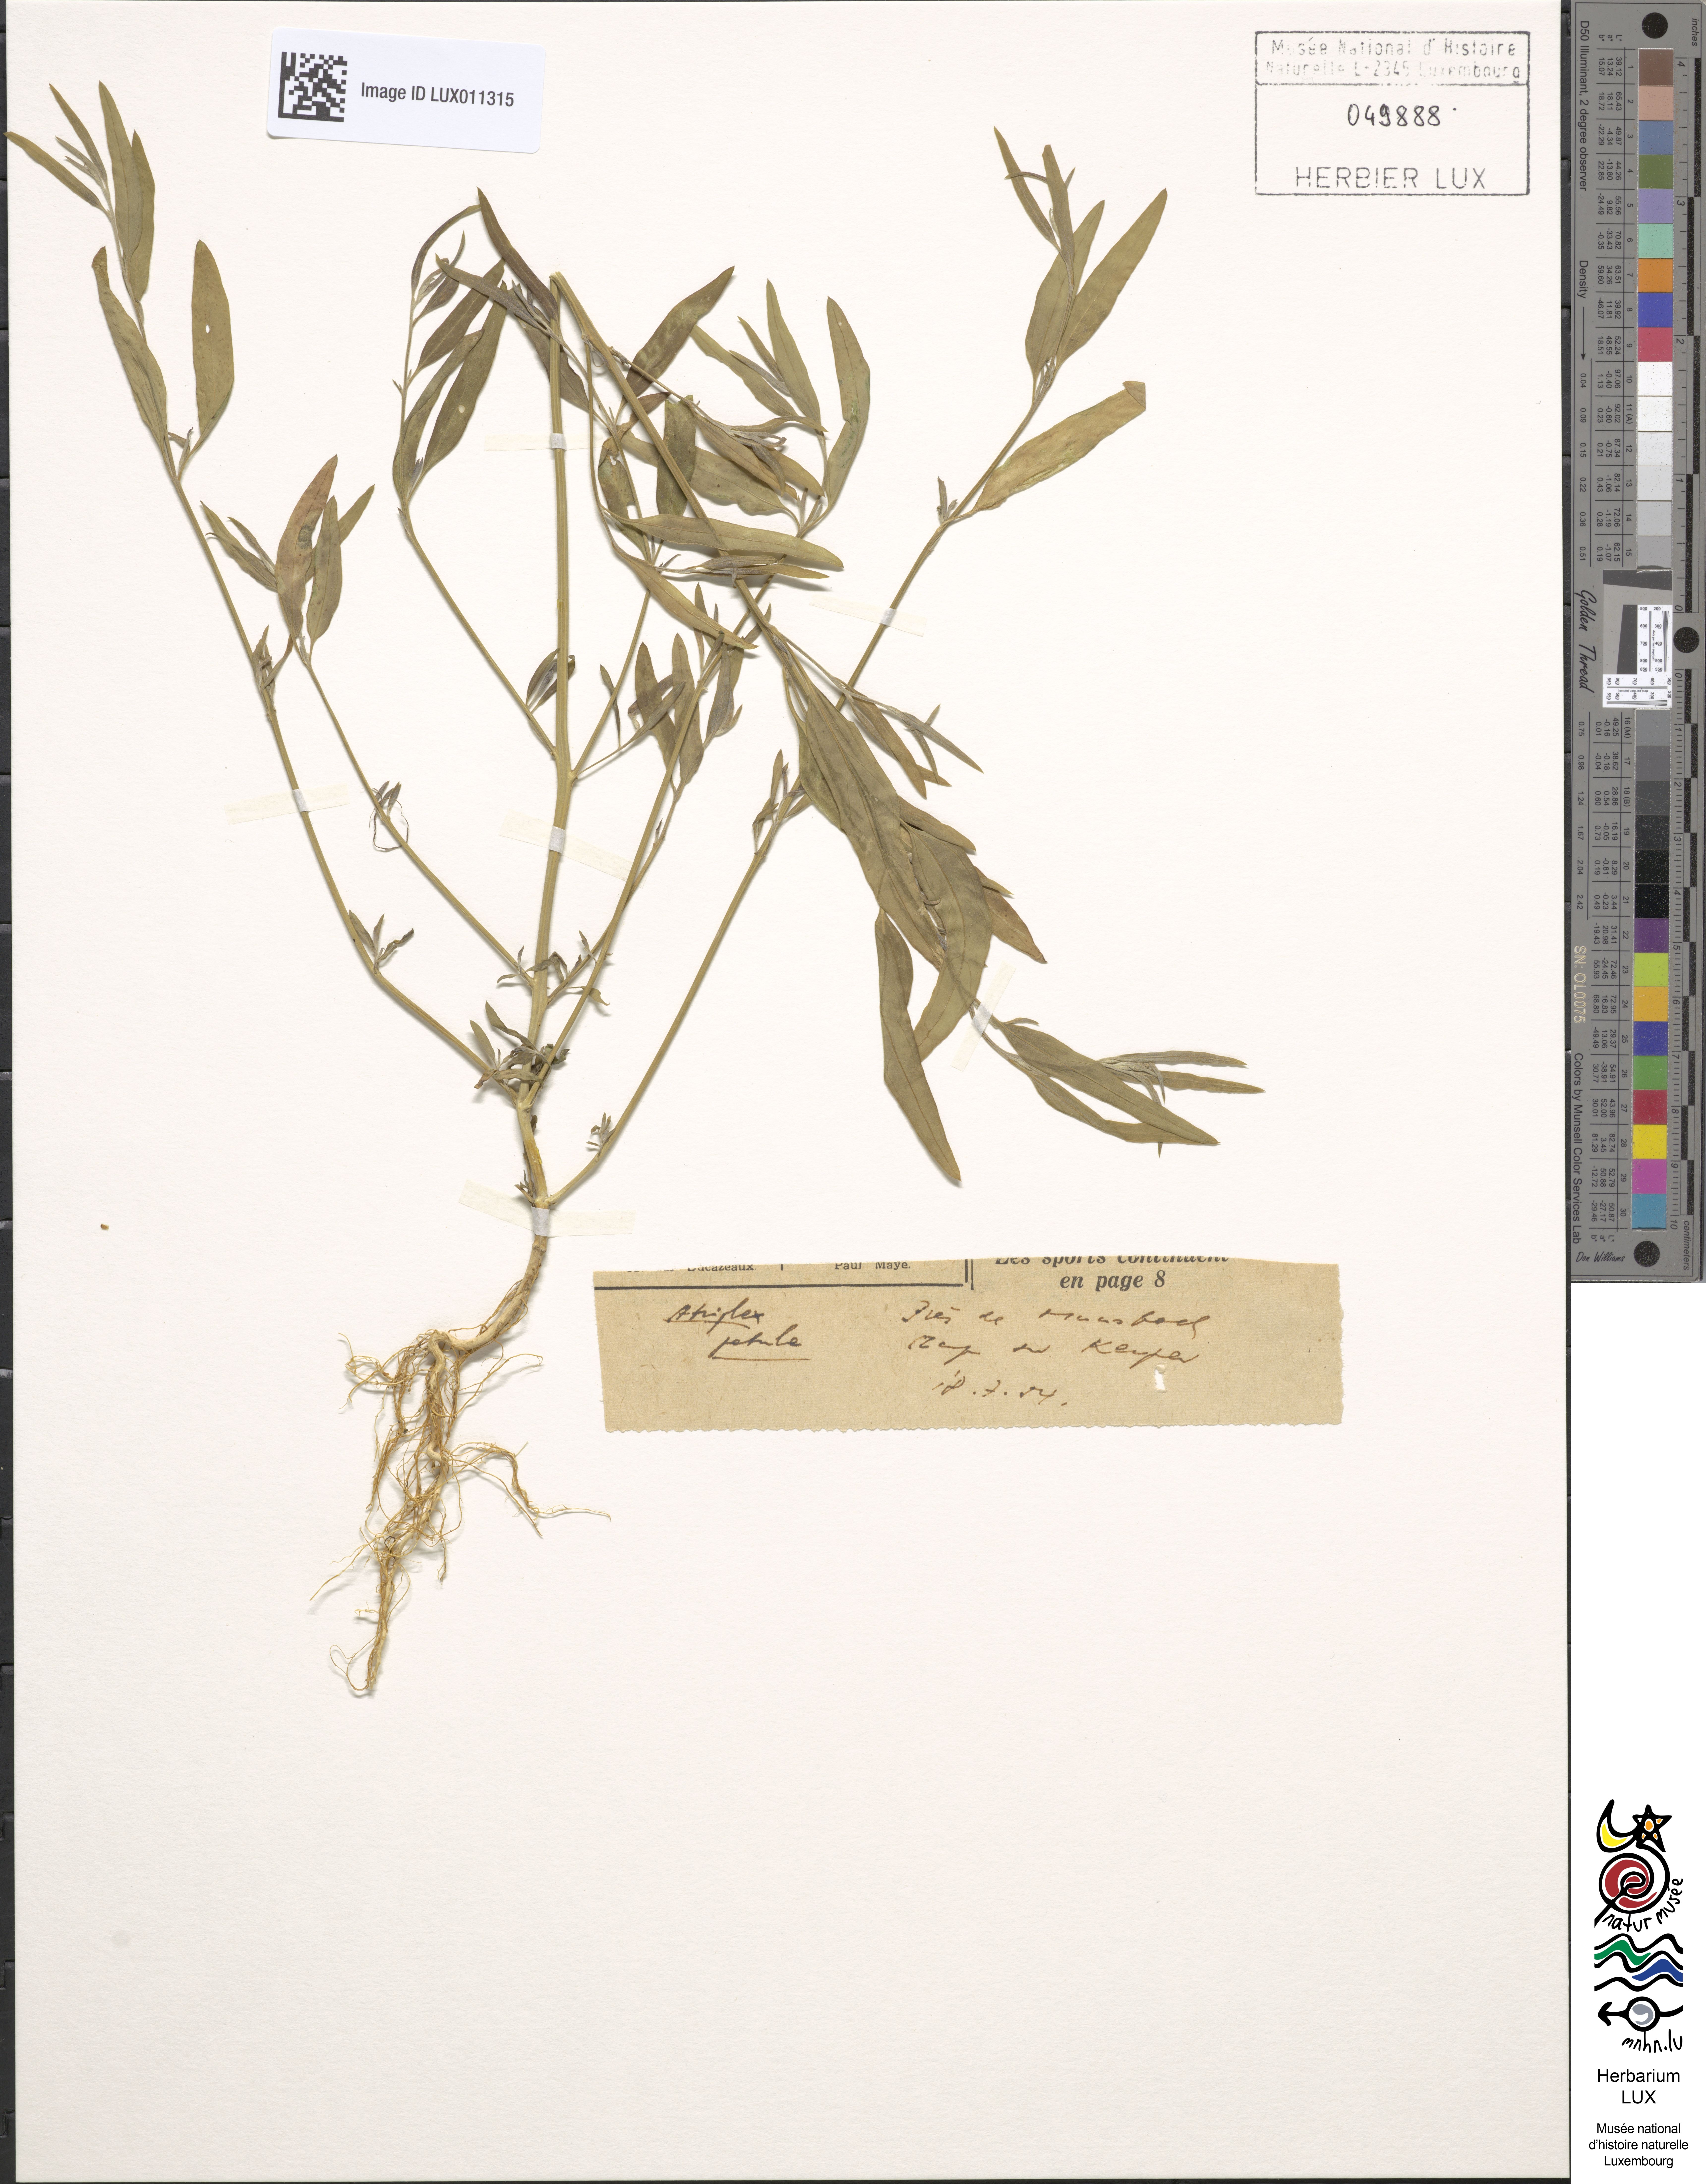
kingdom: Plantae
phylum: Tracheophyta
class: Magnoliopsida
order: Caryophyllales
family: Amaranthaceae
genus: Atriplex
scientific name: Atriplex patula
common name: Common orache
